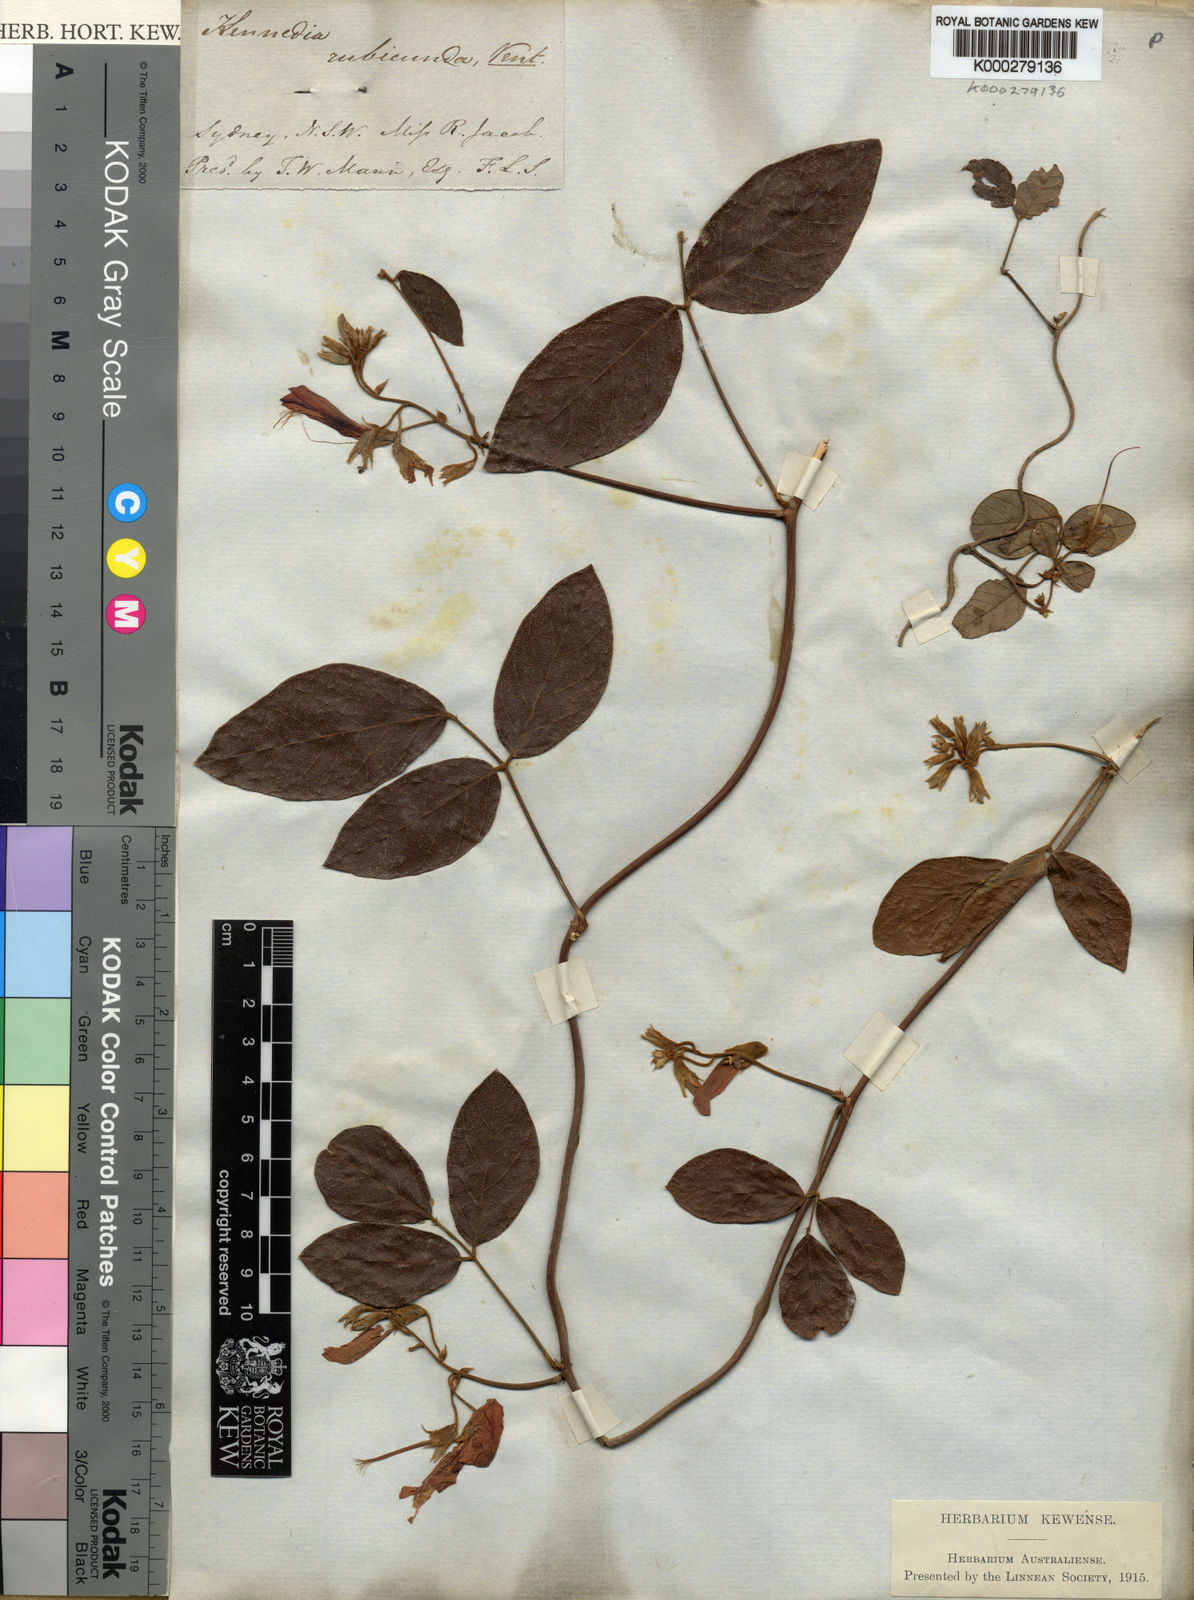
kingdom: Plantae
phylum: Tracheophyta
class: Magnoliopsida
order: Fabales
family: Fabaceae
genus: Kennedia
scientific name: Kennedia rubicunda
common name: Red kennedy-pea
